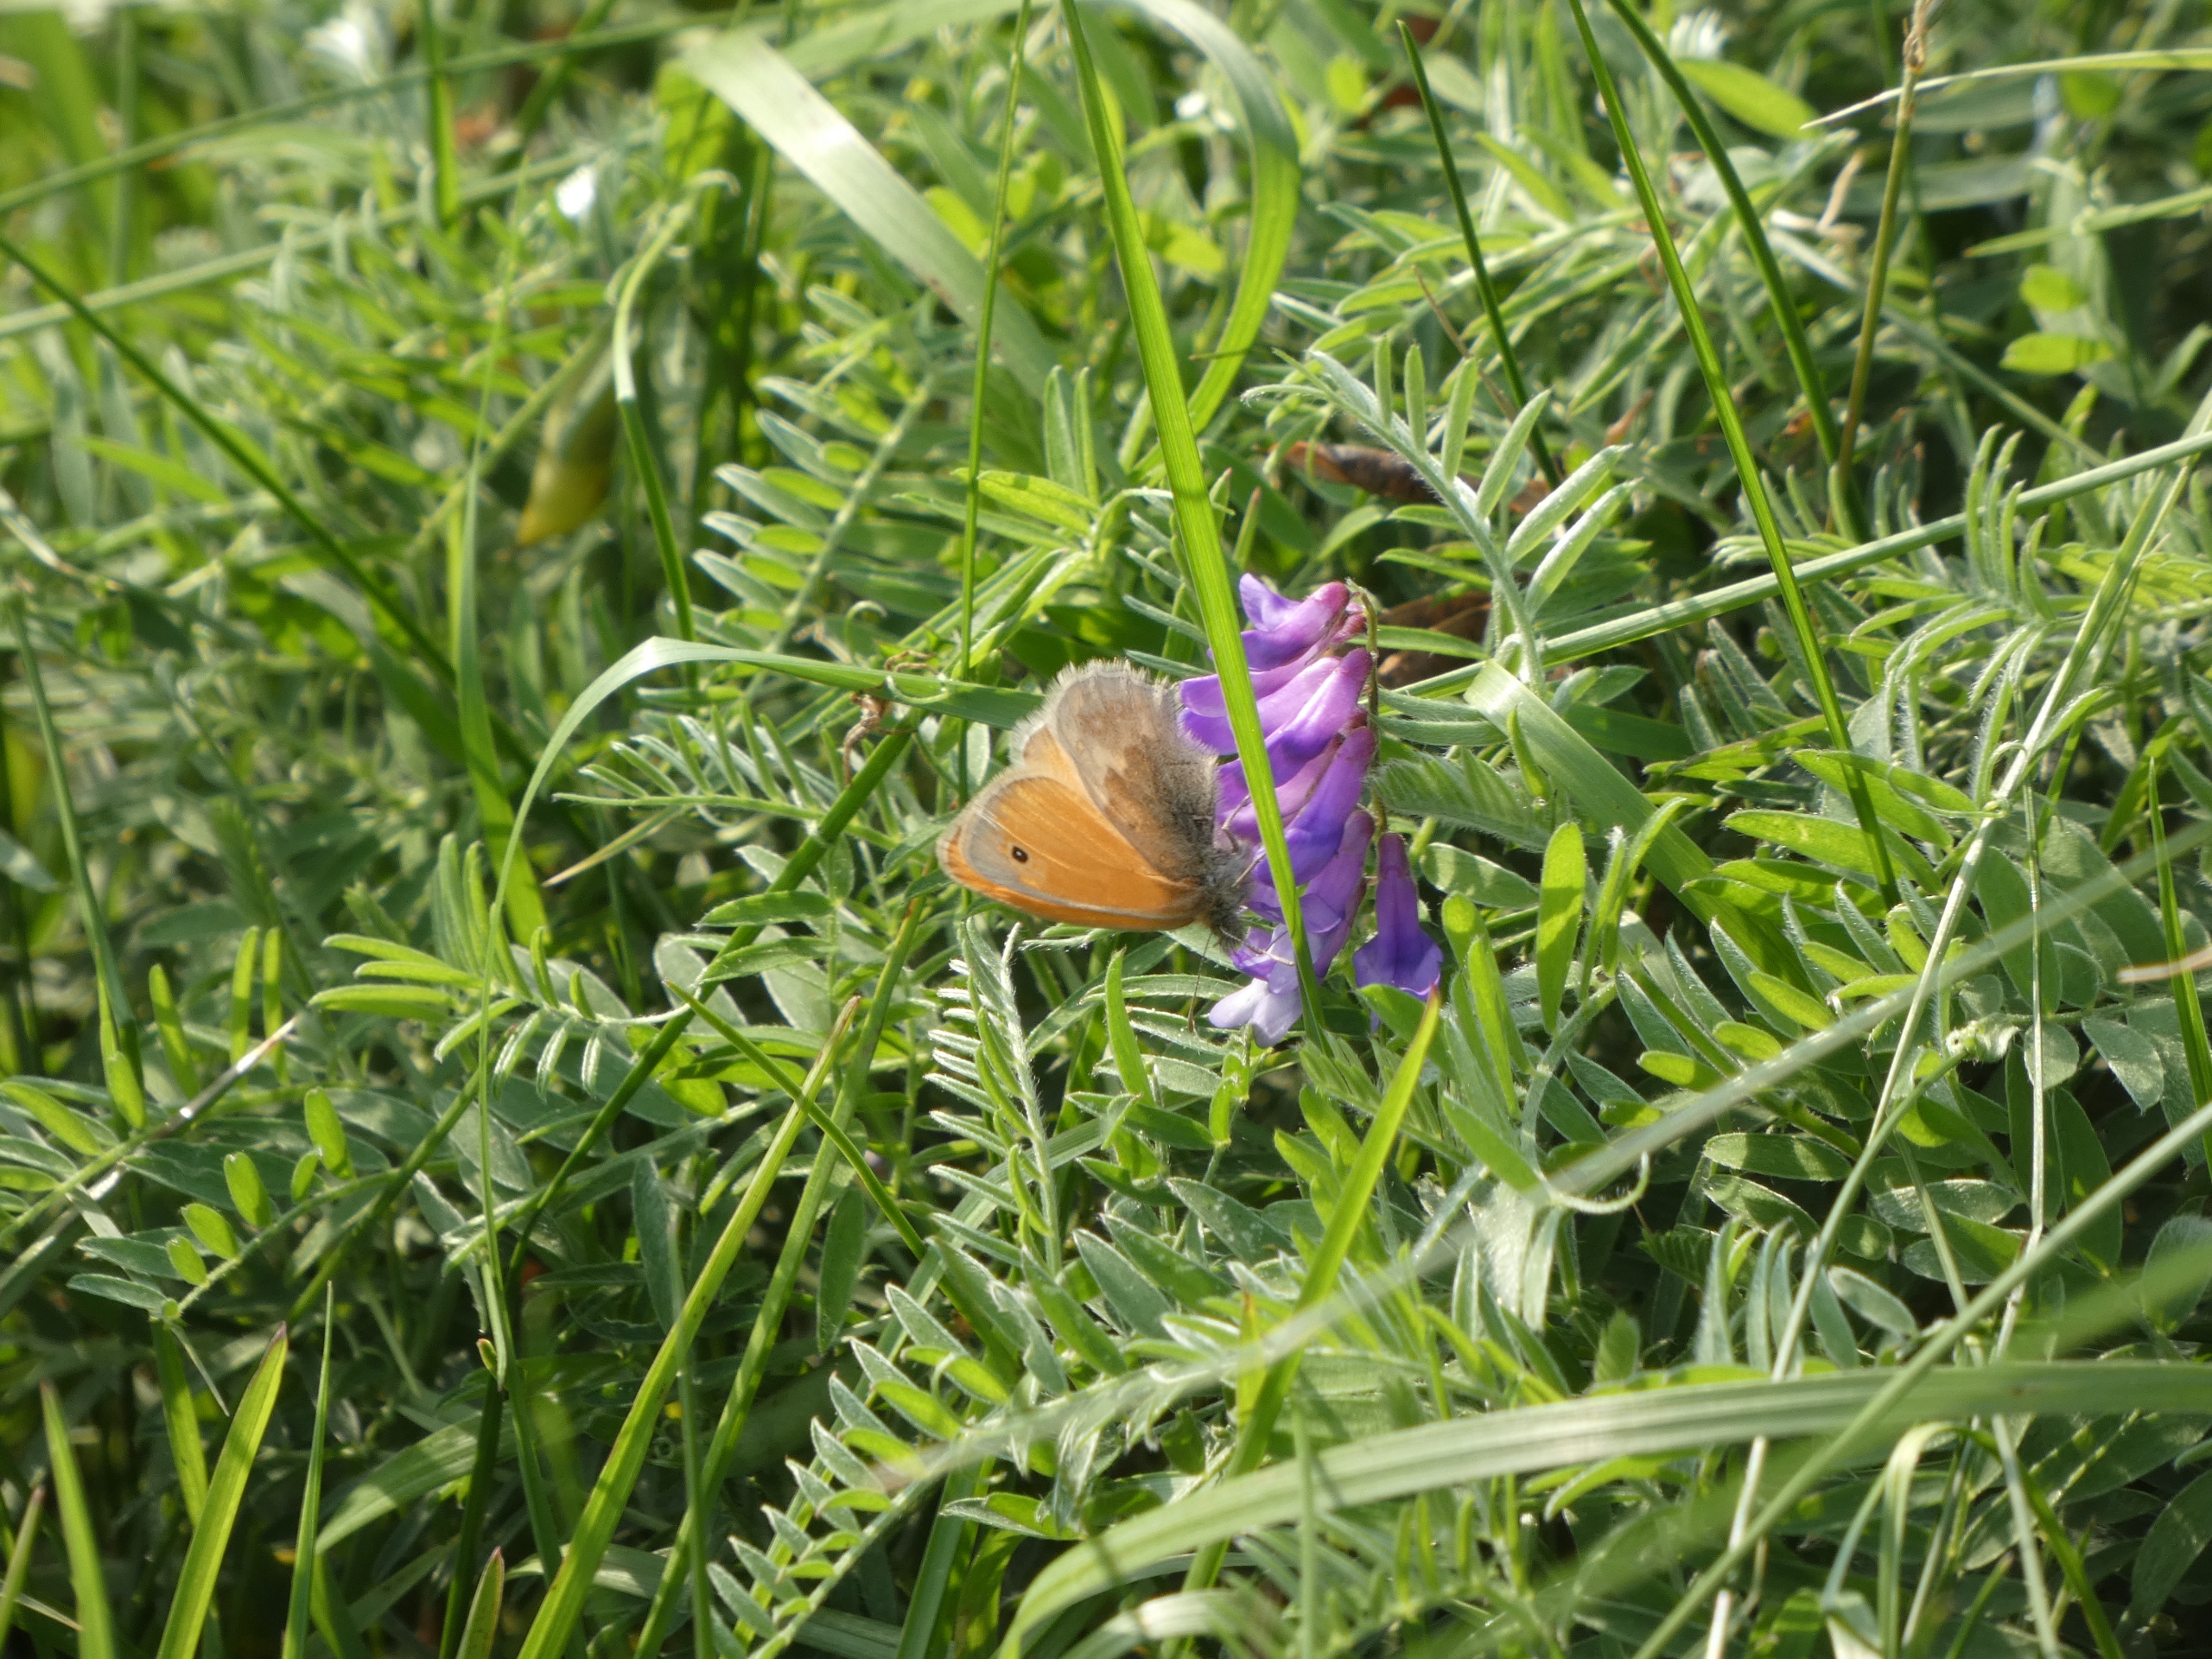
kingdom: Animalia
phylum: Arthropoda
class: Insecta
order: Lepidoptera
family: Nymphalidae
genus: Coenonympha
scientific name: Coenonympha pamphilus
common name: Okkergul randøje
